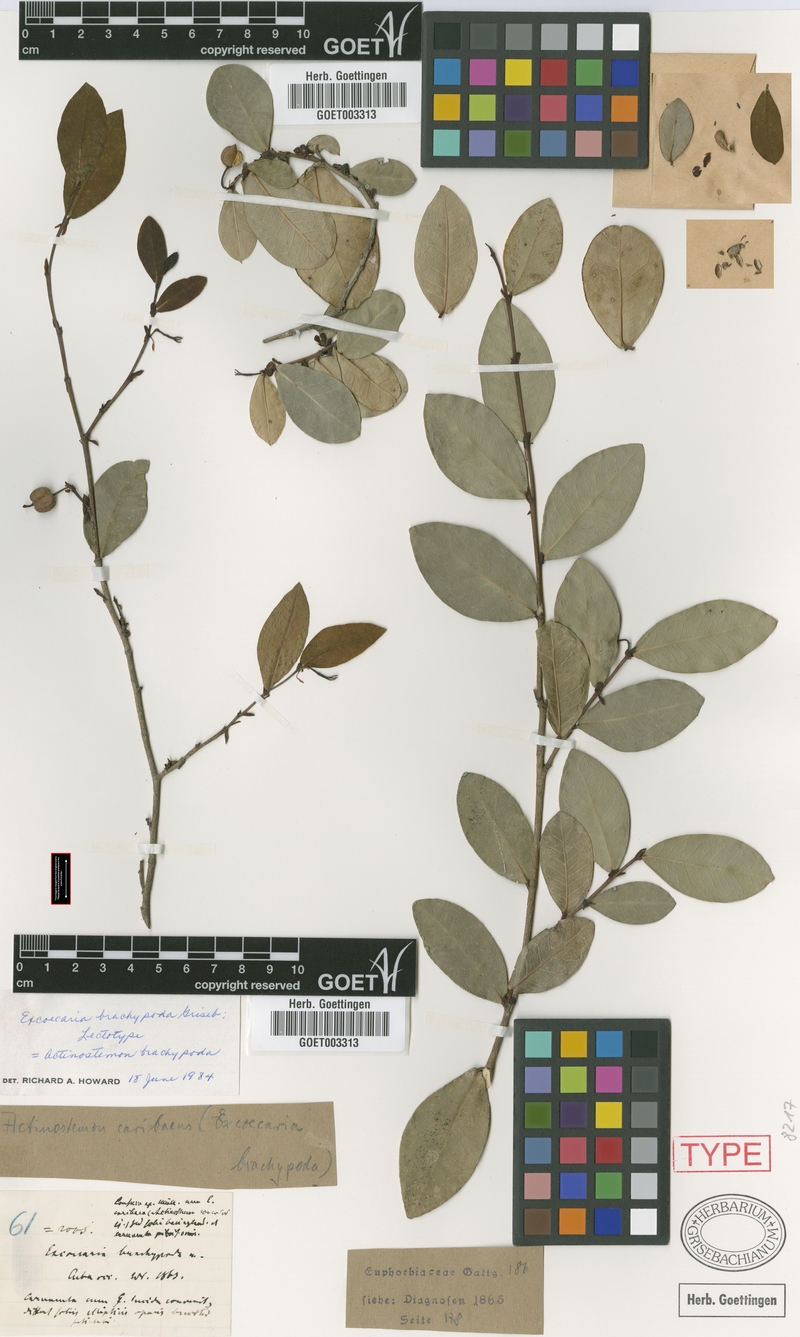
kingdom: Plantae
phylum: Tracheophyta
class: Magnoliopsida
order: Malpighiales
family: Euphorbiaceae
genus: Actinostemon
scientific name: Actinostemon brachypodus
